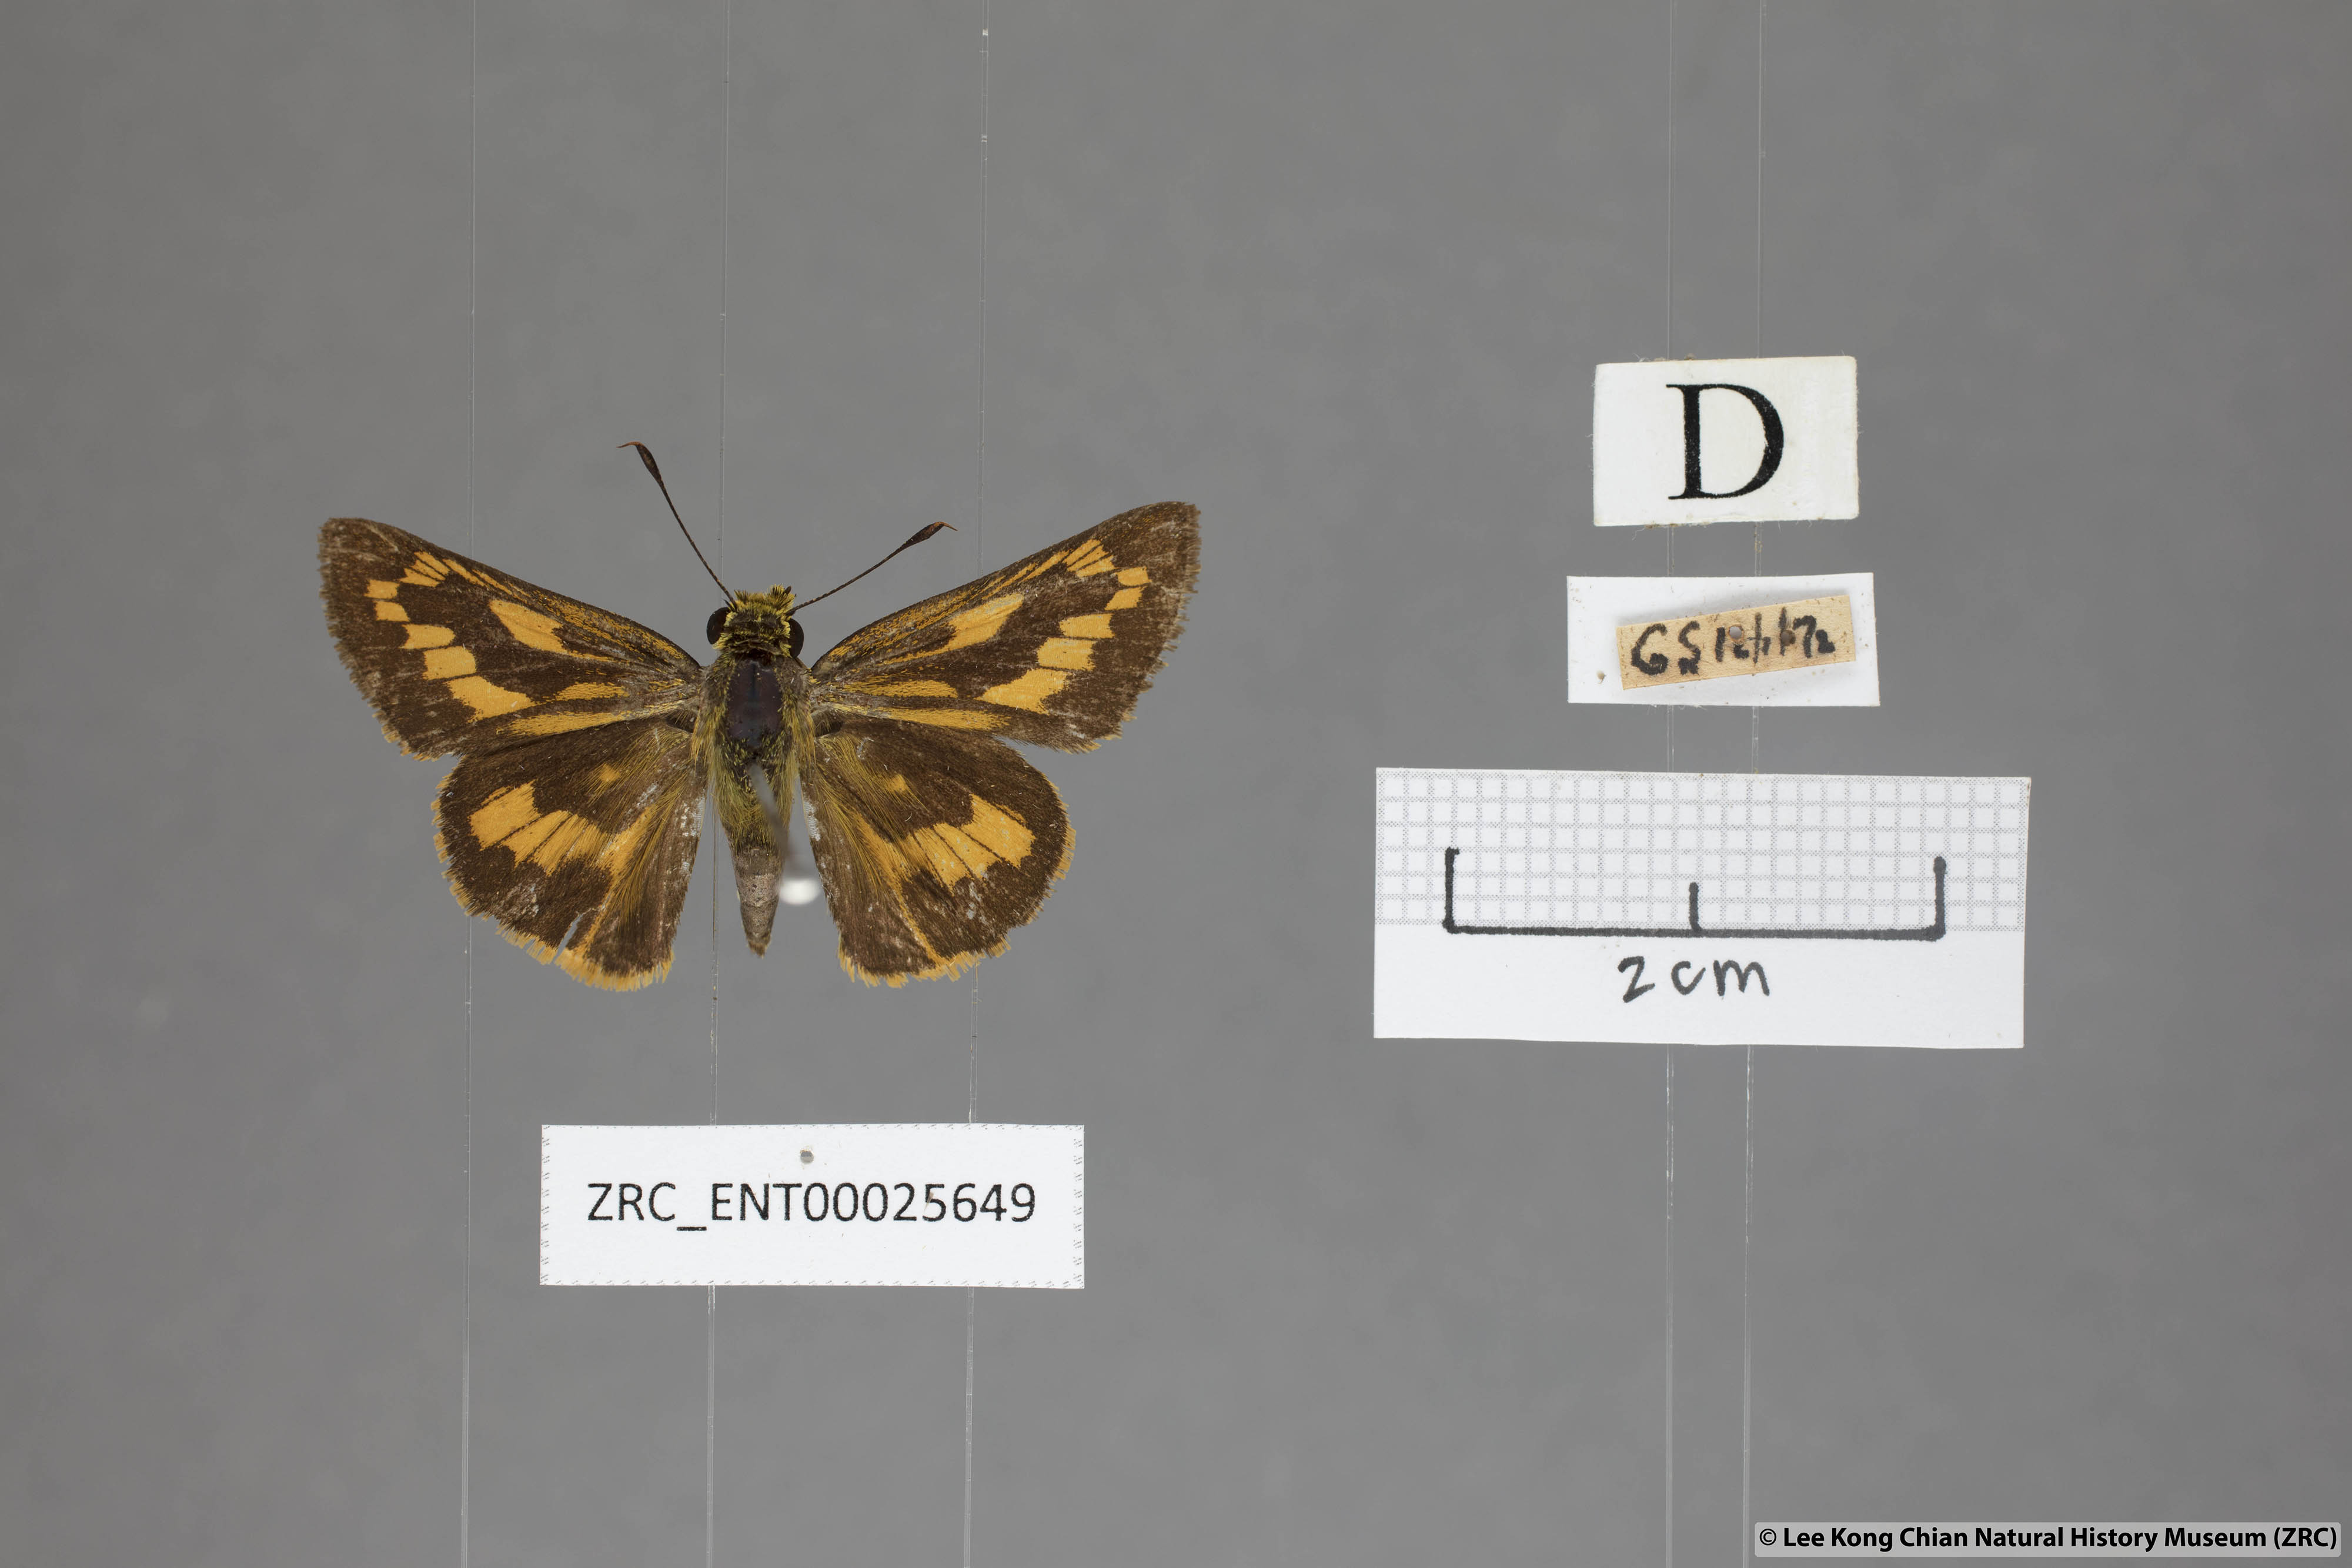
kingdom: Animalia
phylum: Arthropoda
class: Insecta
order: Lepidoptera
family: Hesperiidae
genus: Telicota
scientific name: Telicota besta
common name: Hainan palm dart
